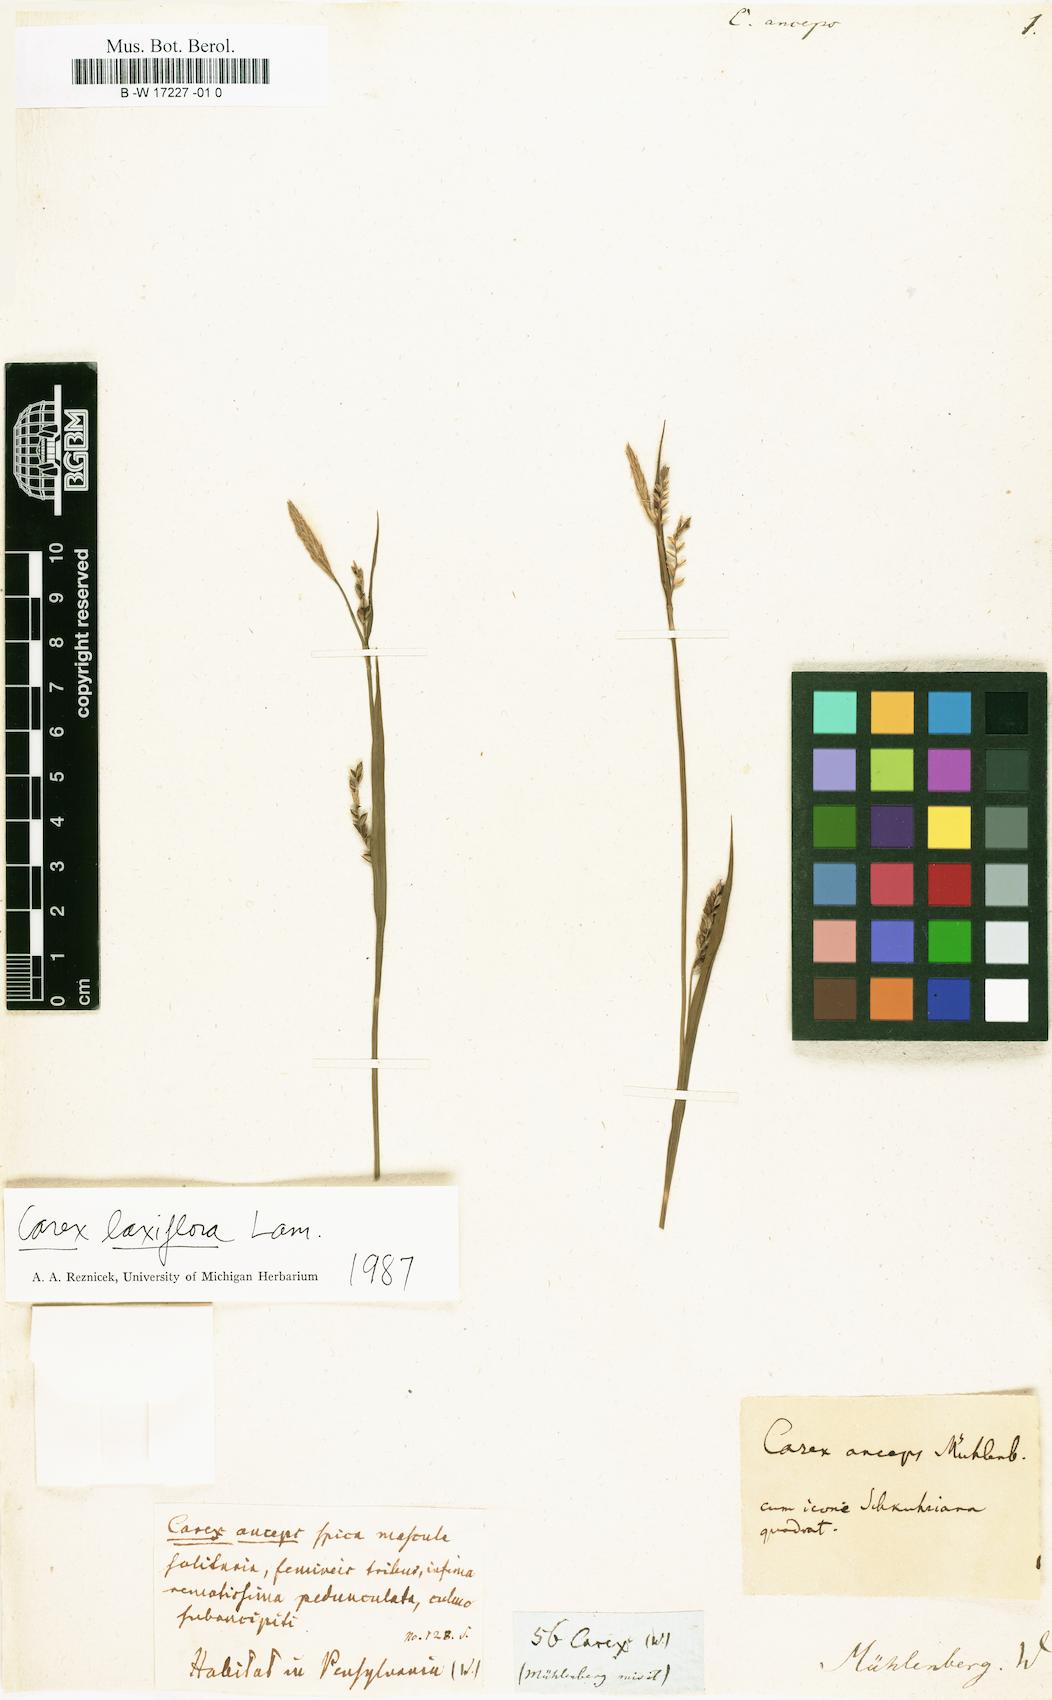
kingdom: Plantae
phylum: Tracheophyta
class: Liliopsida
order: Poales
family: Cyperaceae
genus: Carex
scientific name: Carex laxiflora
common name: Beech wood sedge
